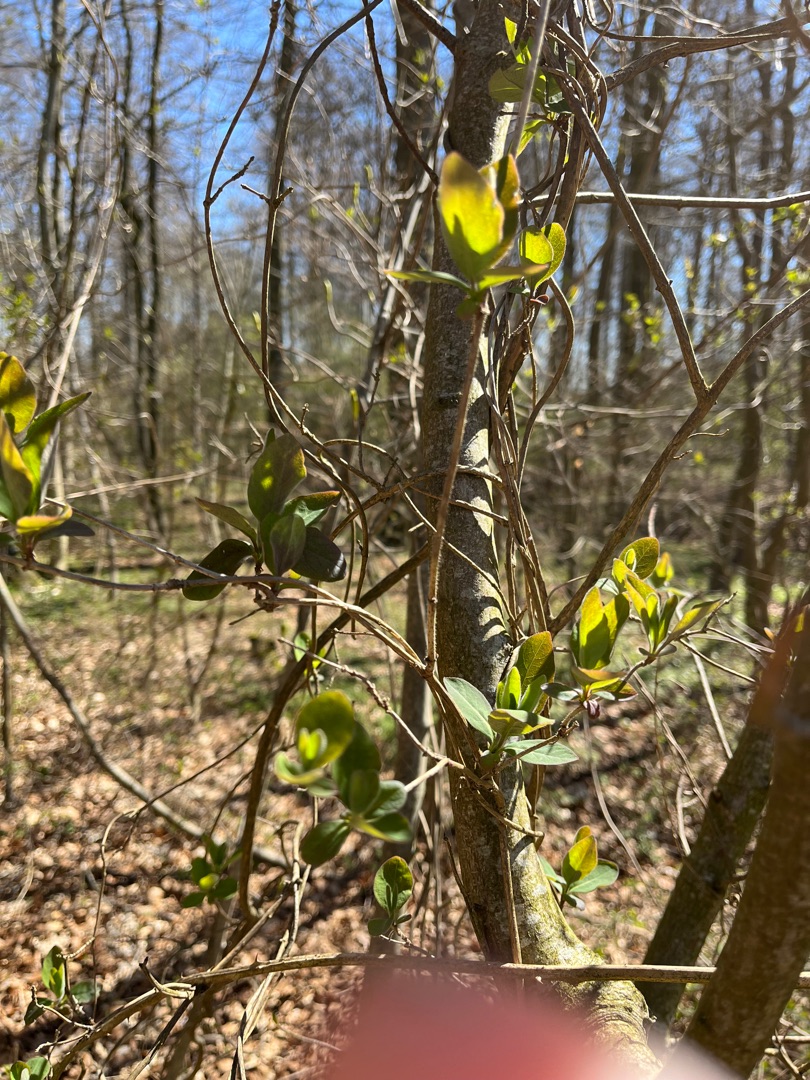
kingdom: Plantae
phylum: Tracheophyta
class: Magnoliopsida
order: Dipsacales
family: Caprifoliaceae
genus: Lonicera
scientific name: Lonicera periclymenum
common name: Almindelig gedeblad
